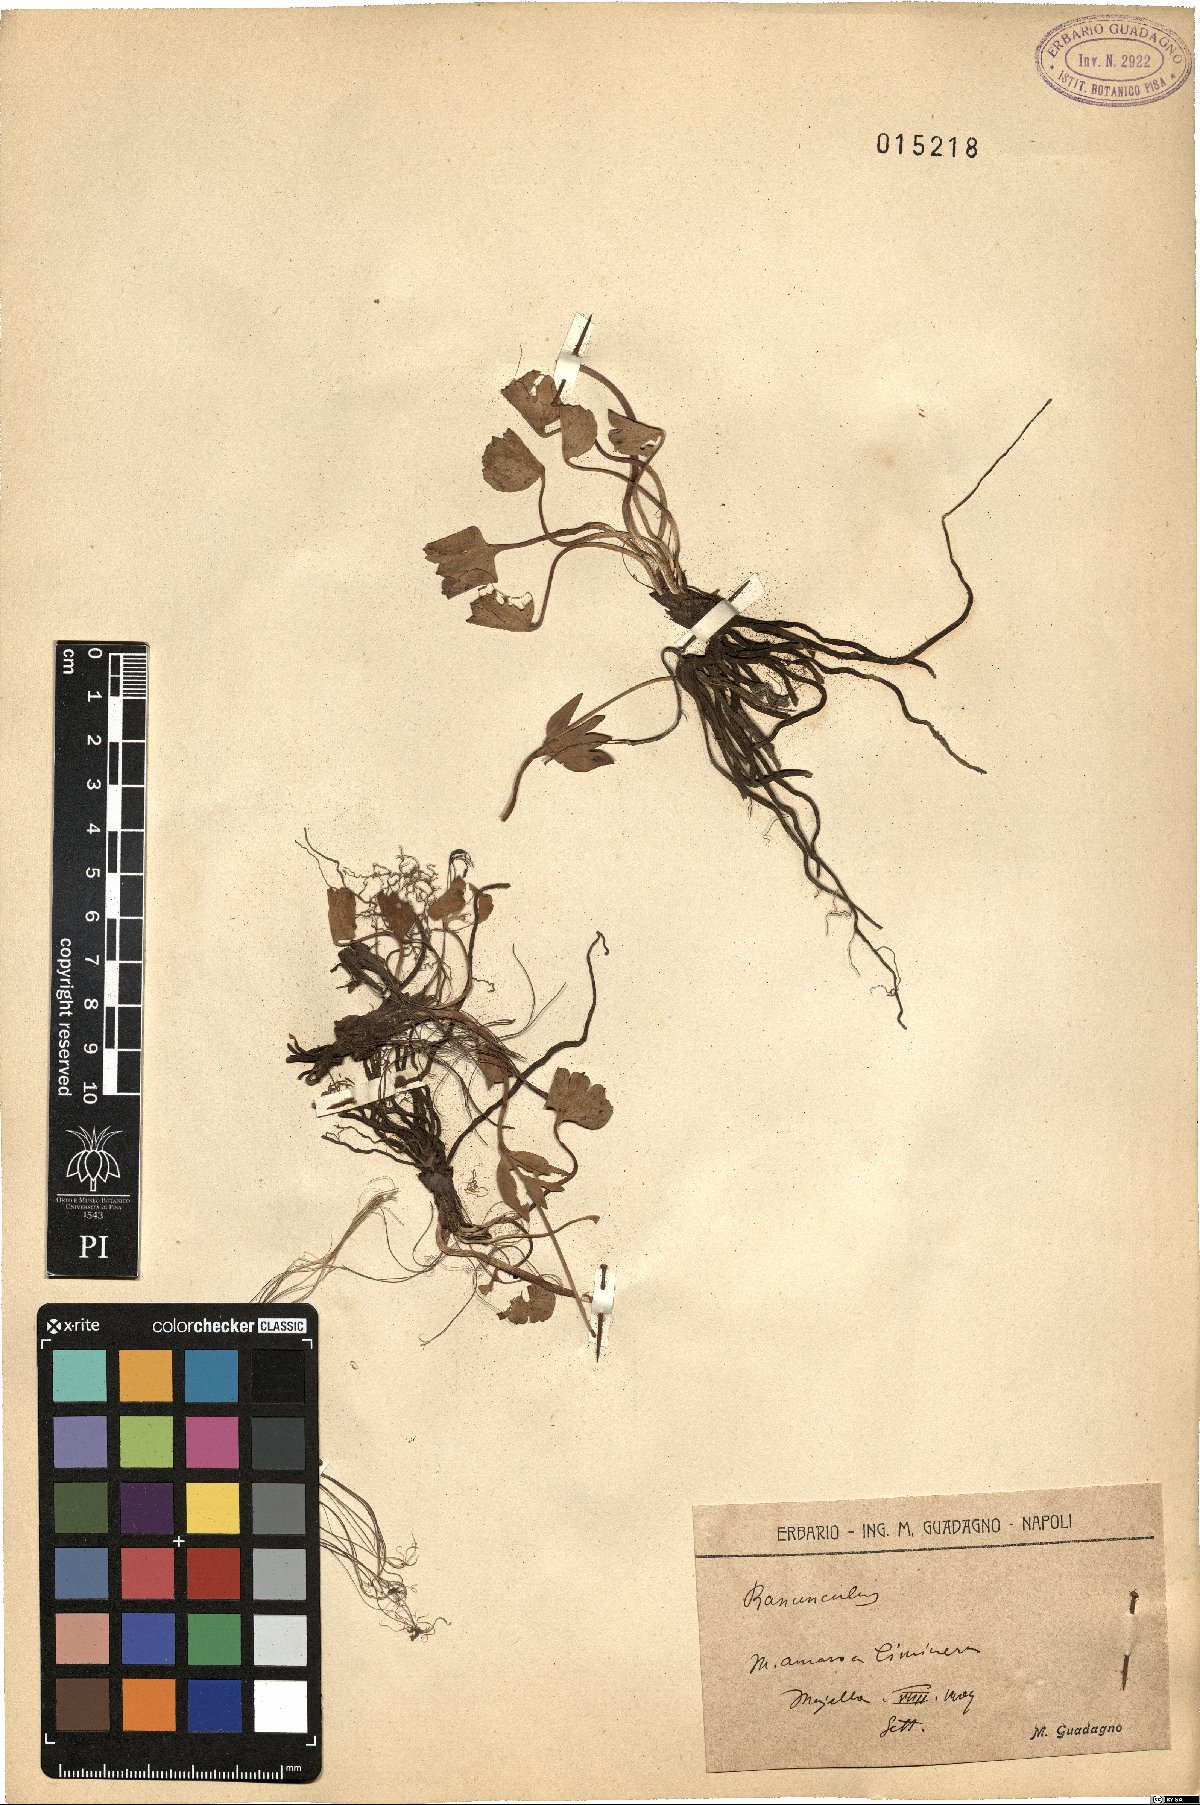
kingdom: Plantae
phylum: Tracheophyta
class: Magnoliopsida
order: Ranunculales
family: Ranunculaceae
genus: Ranunculus
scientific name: Ranunculus
